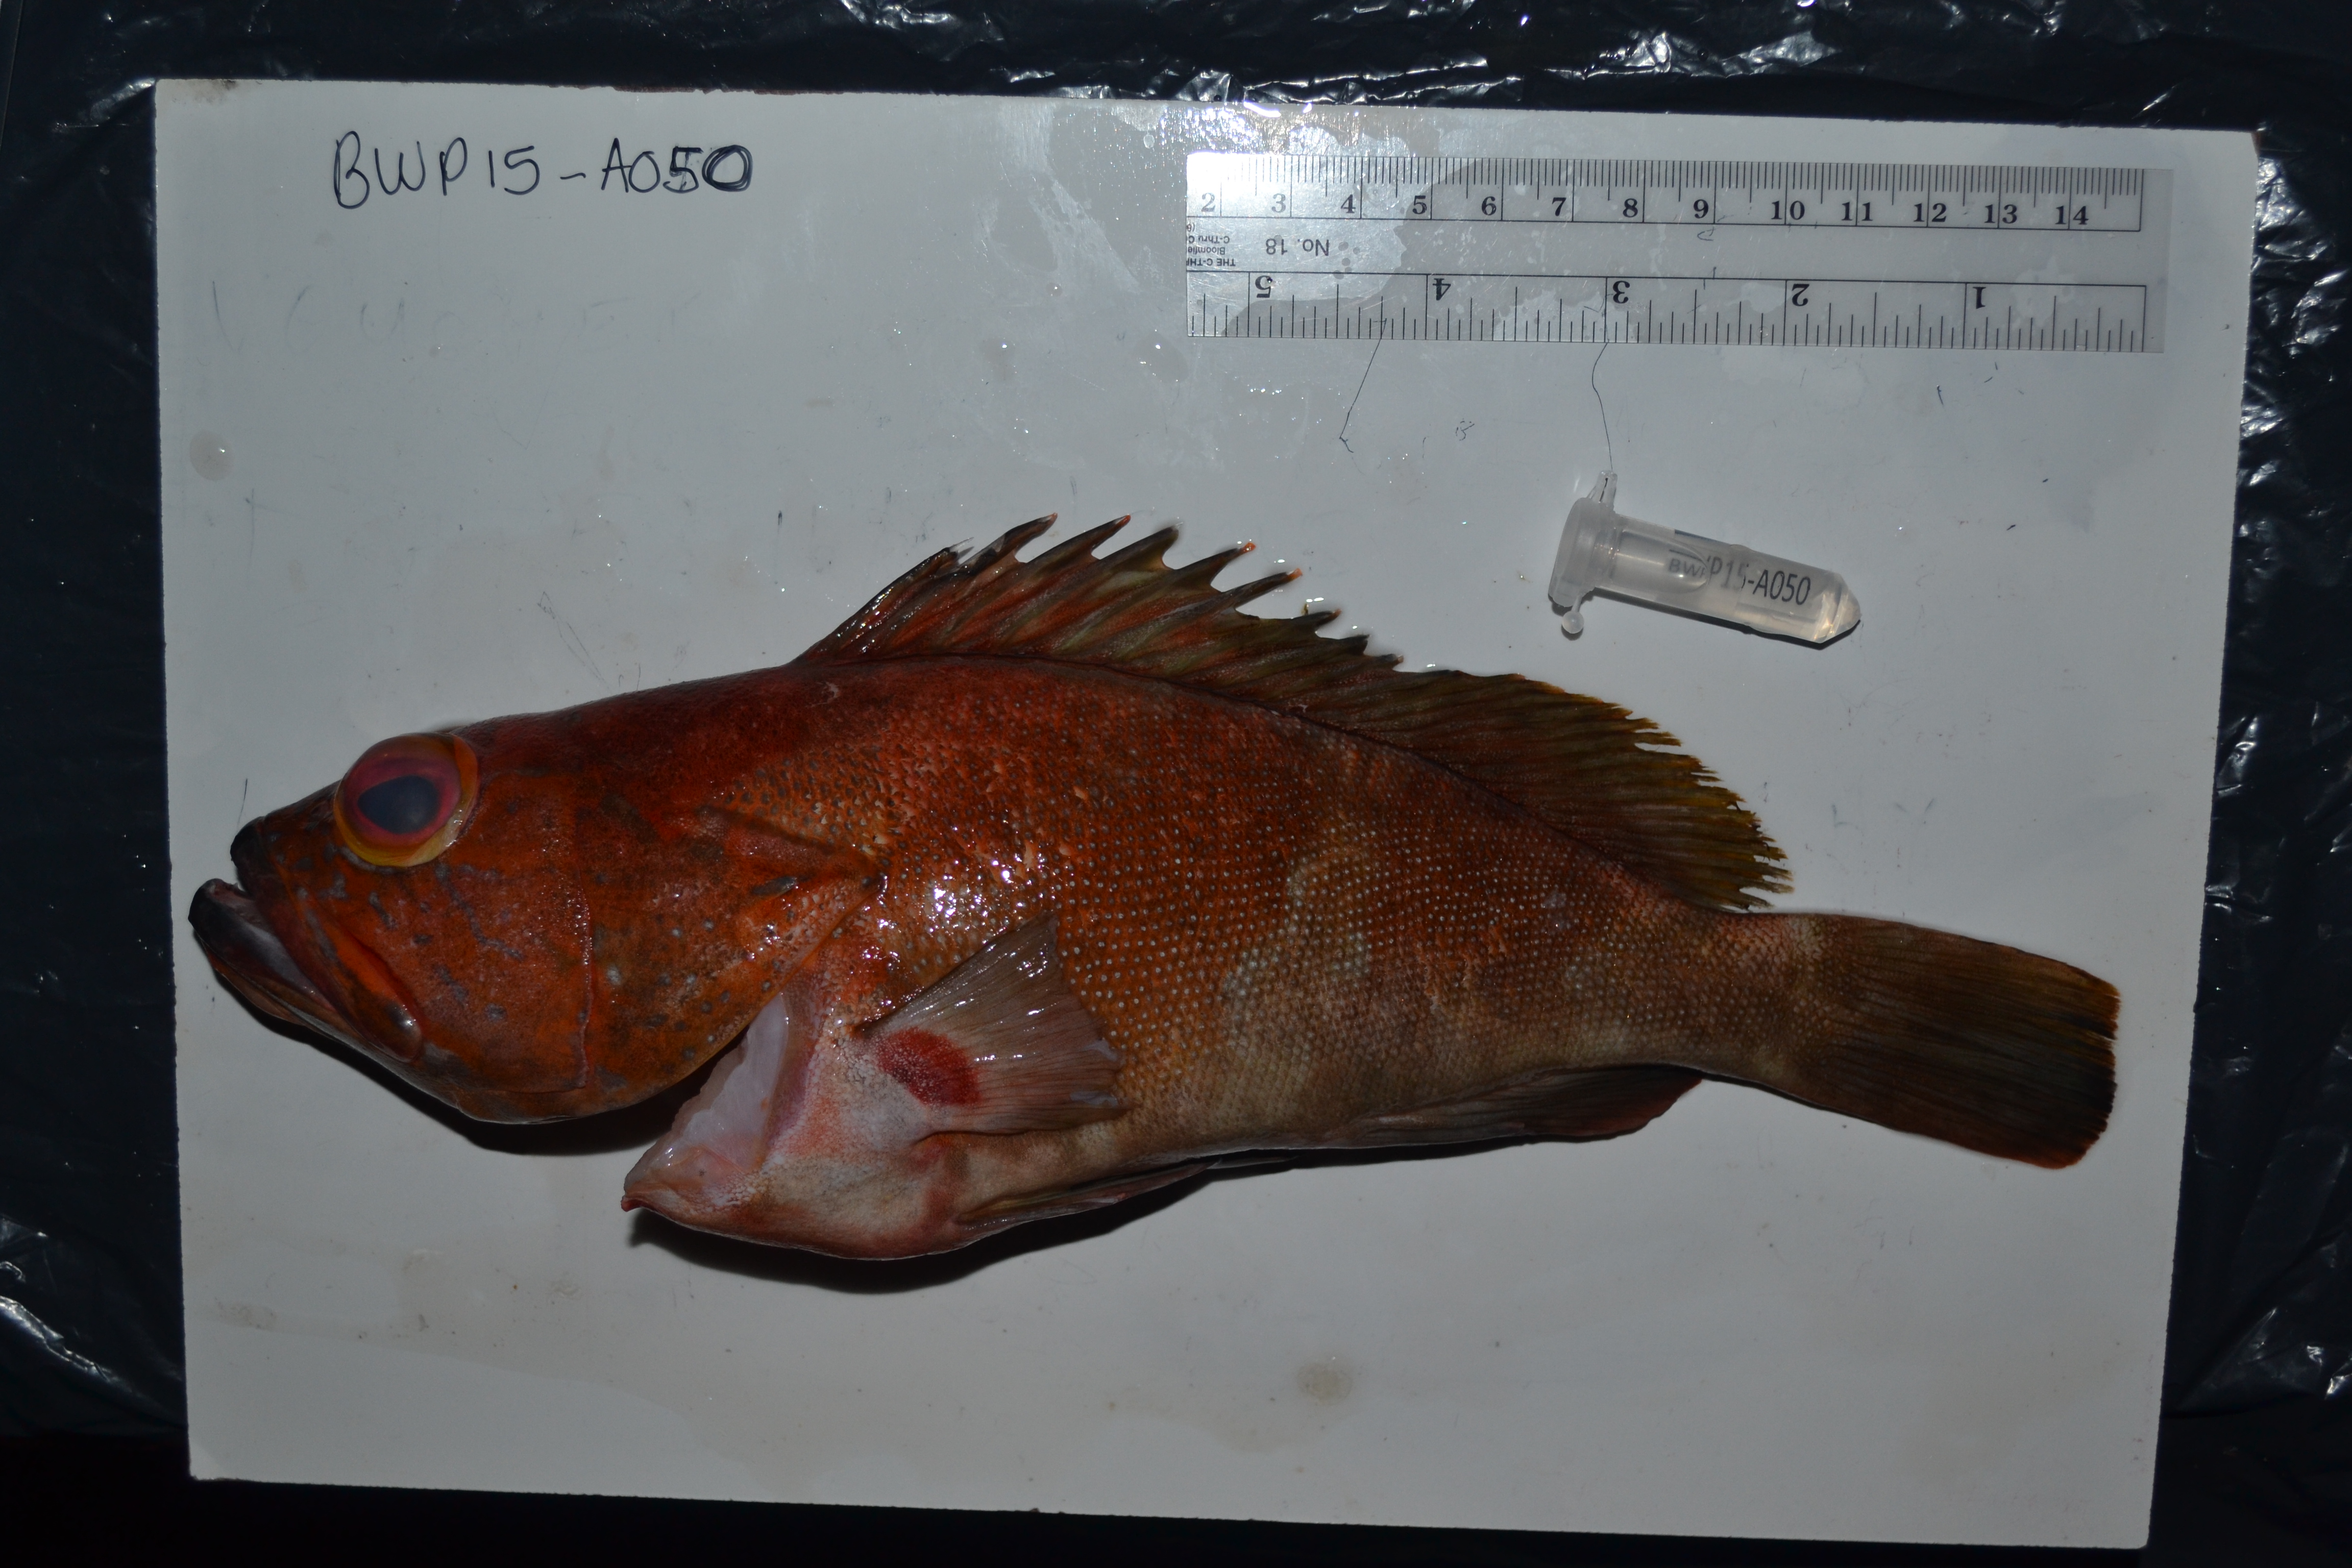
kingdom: Animalia
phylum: Chordata
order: Perciformes
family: Serranidae
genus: Cephalopholis
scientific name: Cephalopholis miniata
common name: Coral hind
